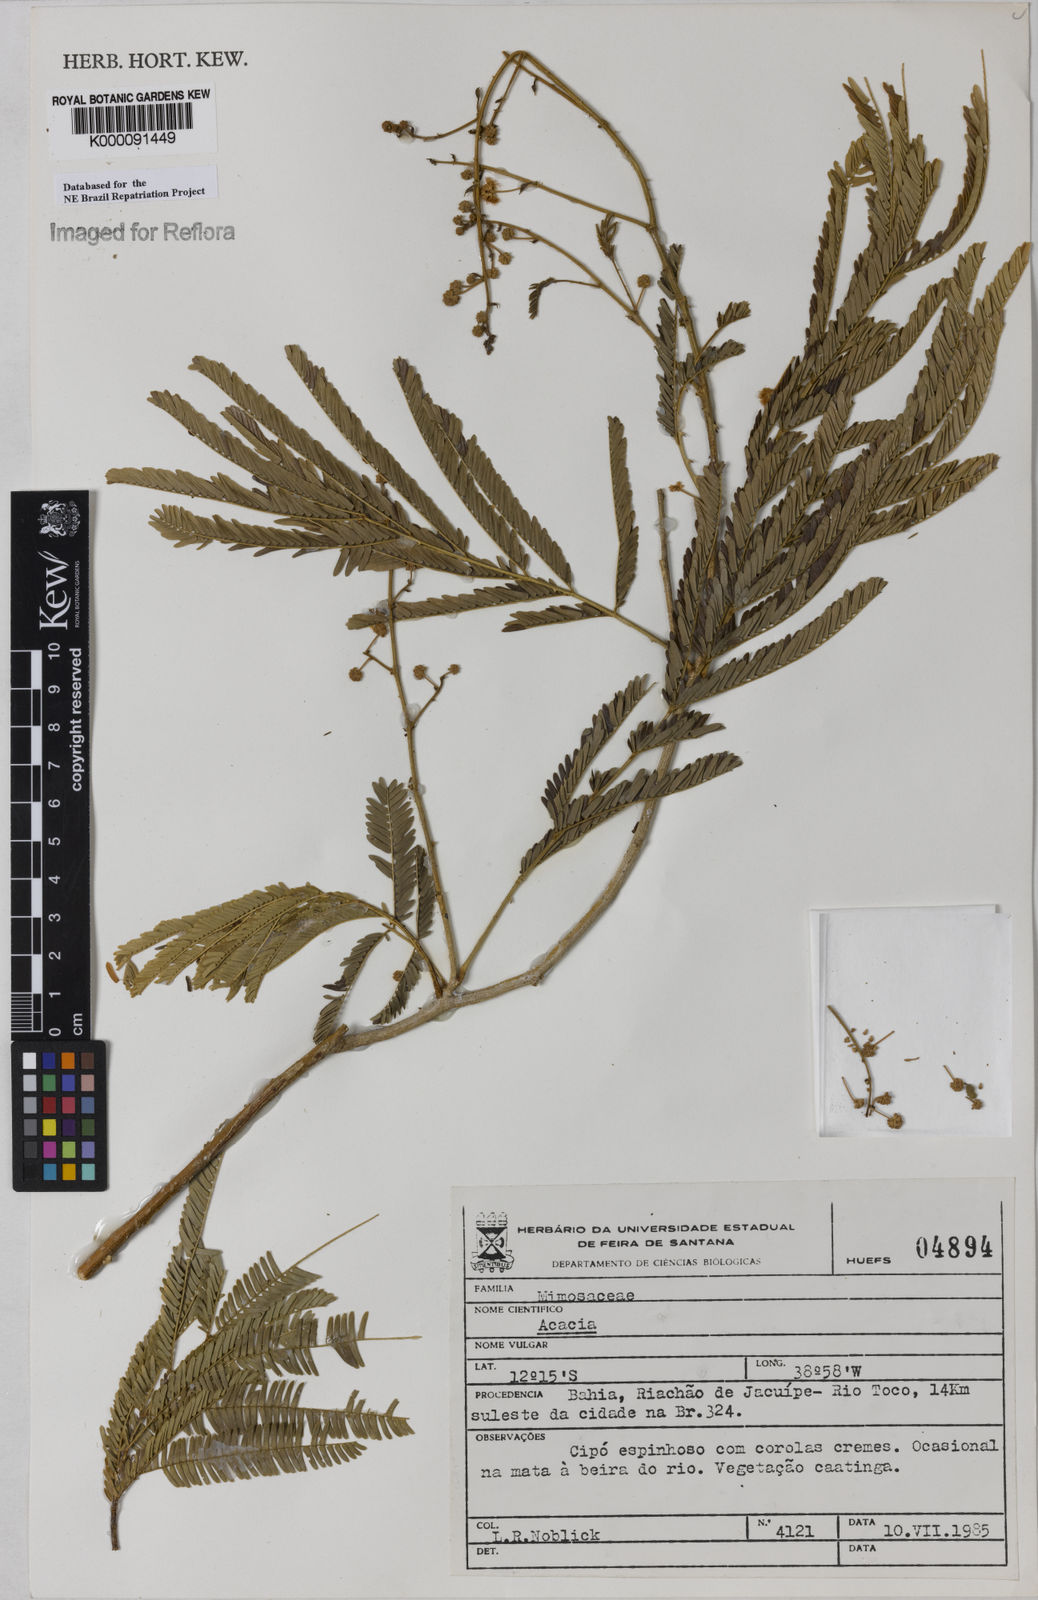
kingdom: Plantae
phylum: Tracheophyta
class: Magnoliopsida
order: Fabales
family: Fabaceae
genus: Acacia
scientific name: Acacia
